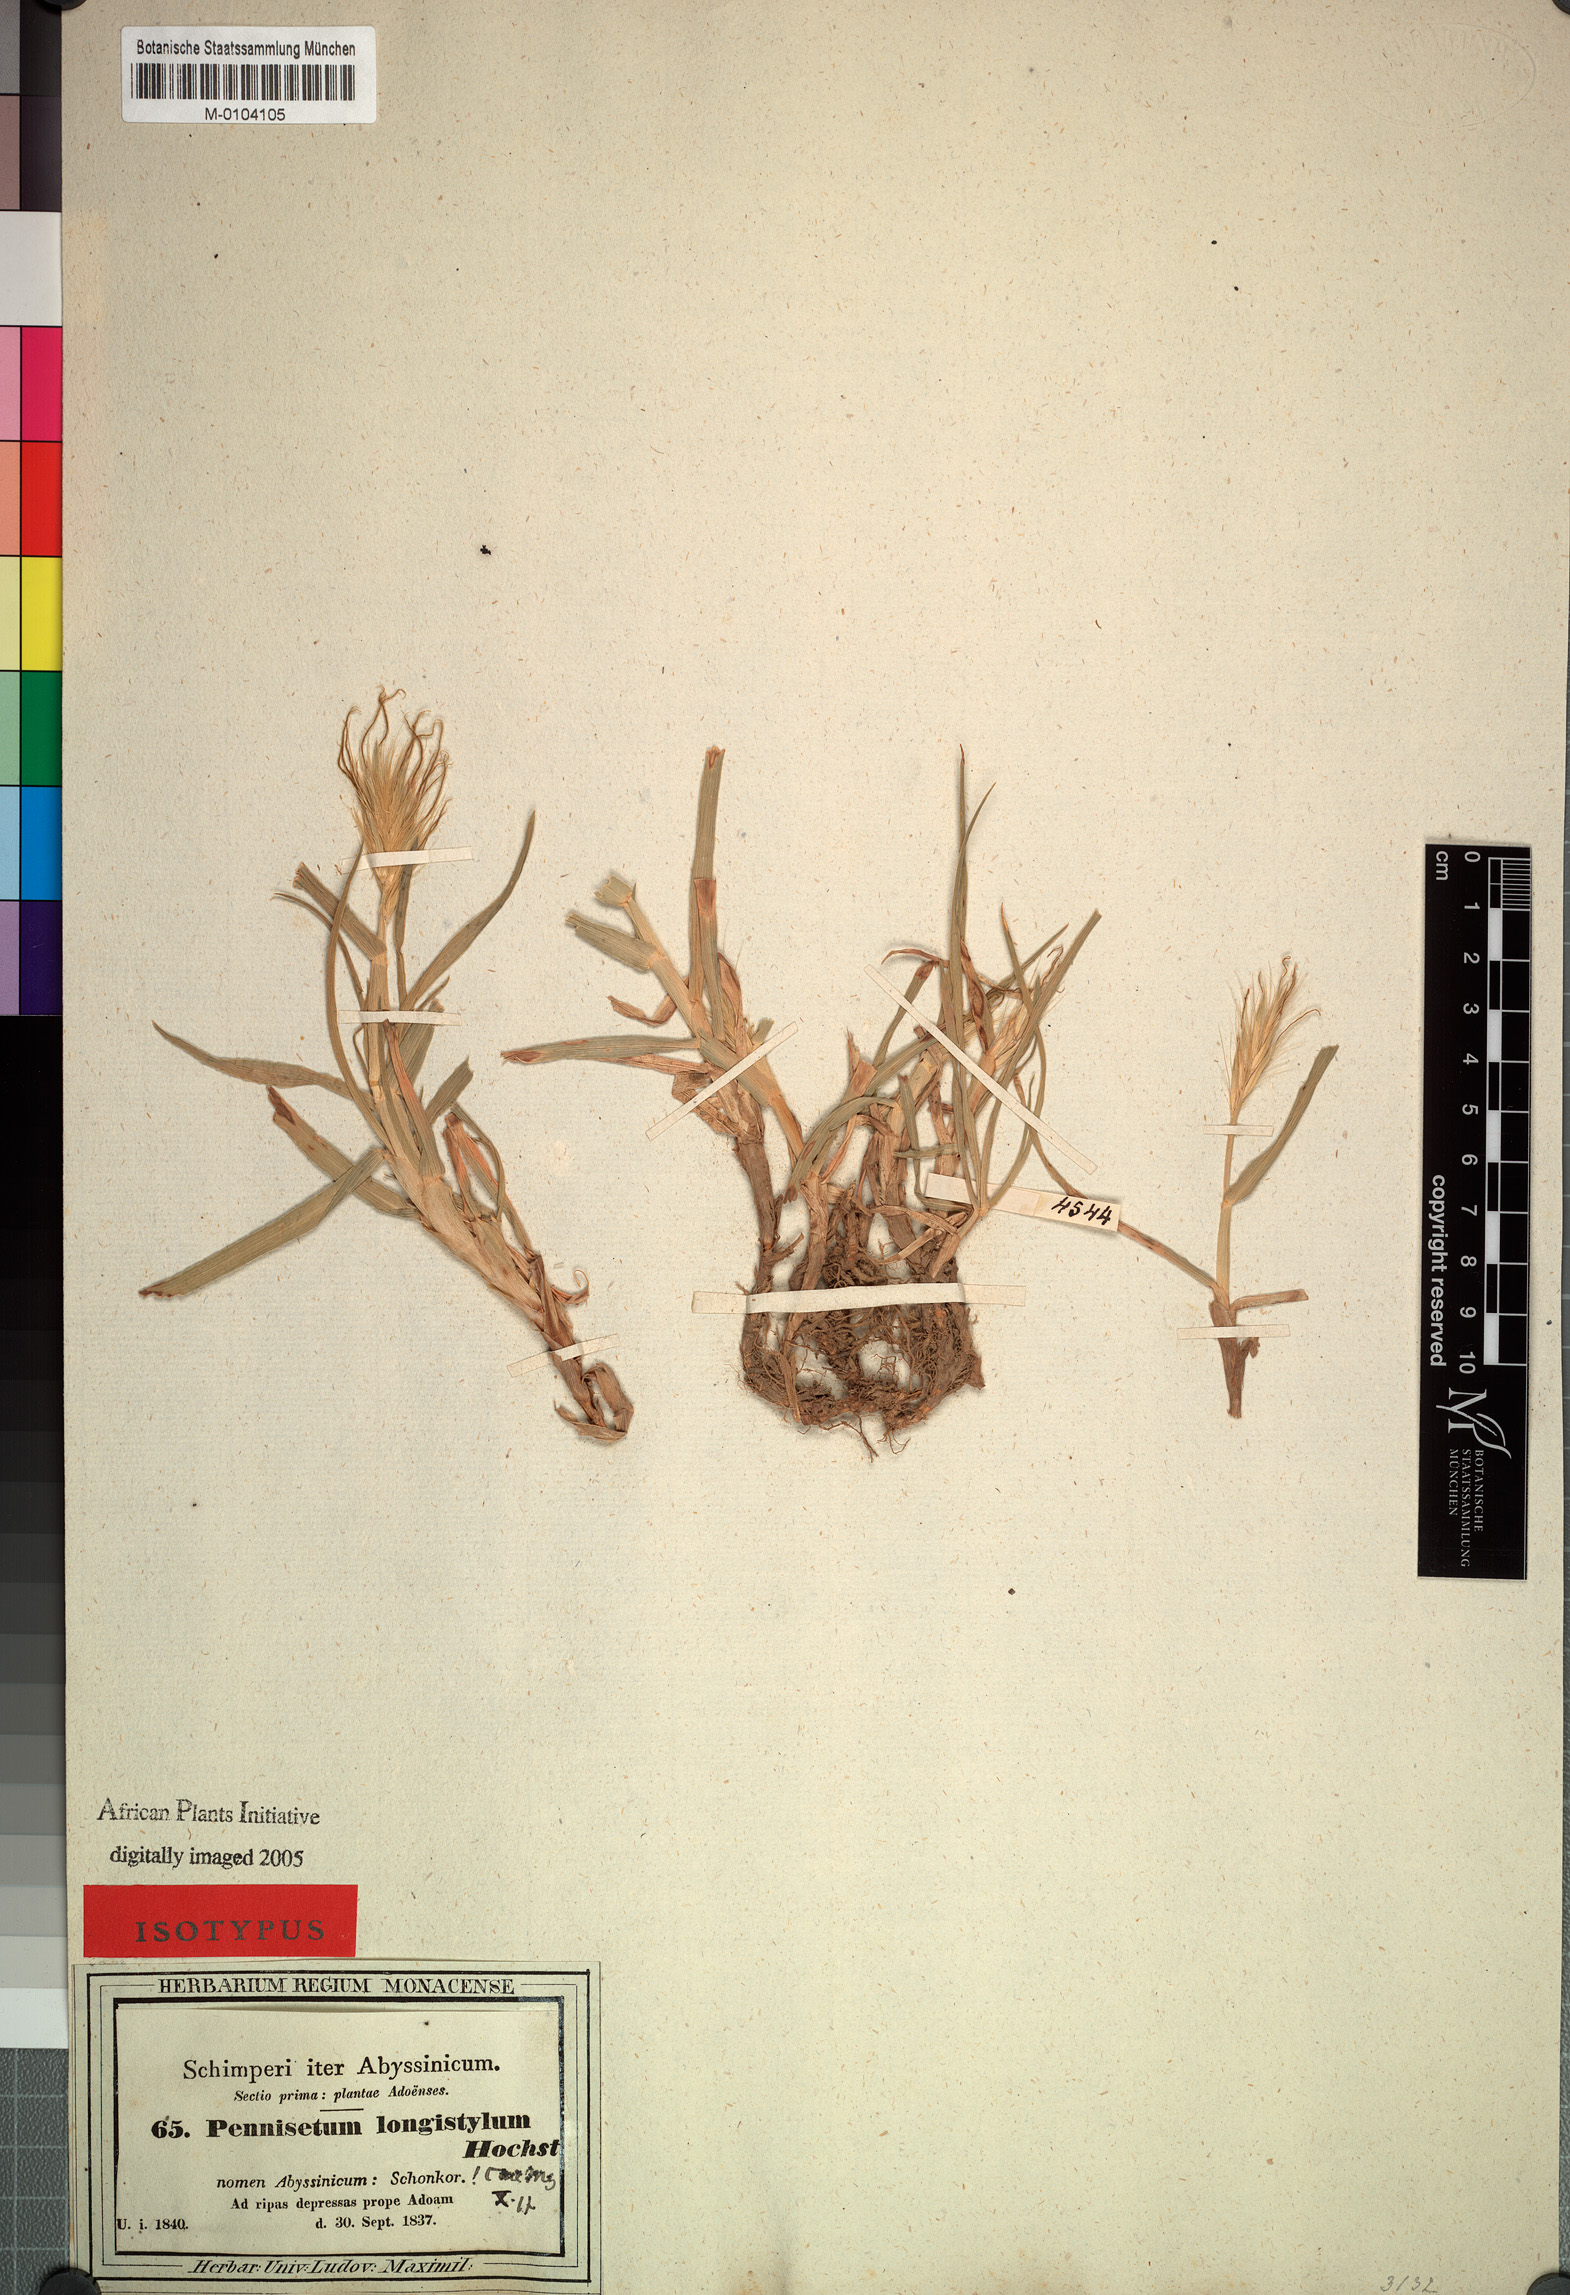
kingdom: Plantae
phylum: Tracheophyta
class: Liliopsida
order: Poales
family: Poaceae
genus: Cenchrus
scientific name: Cenchrus longistylus
